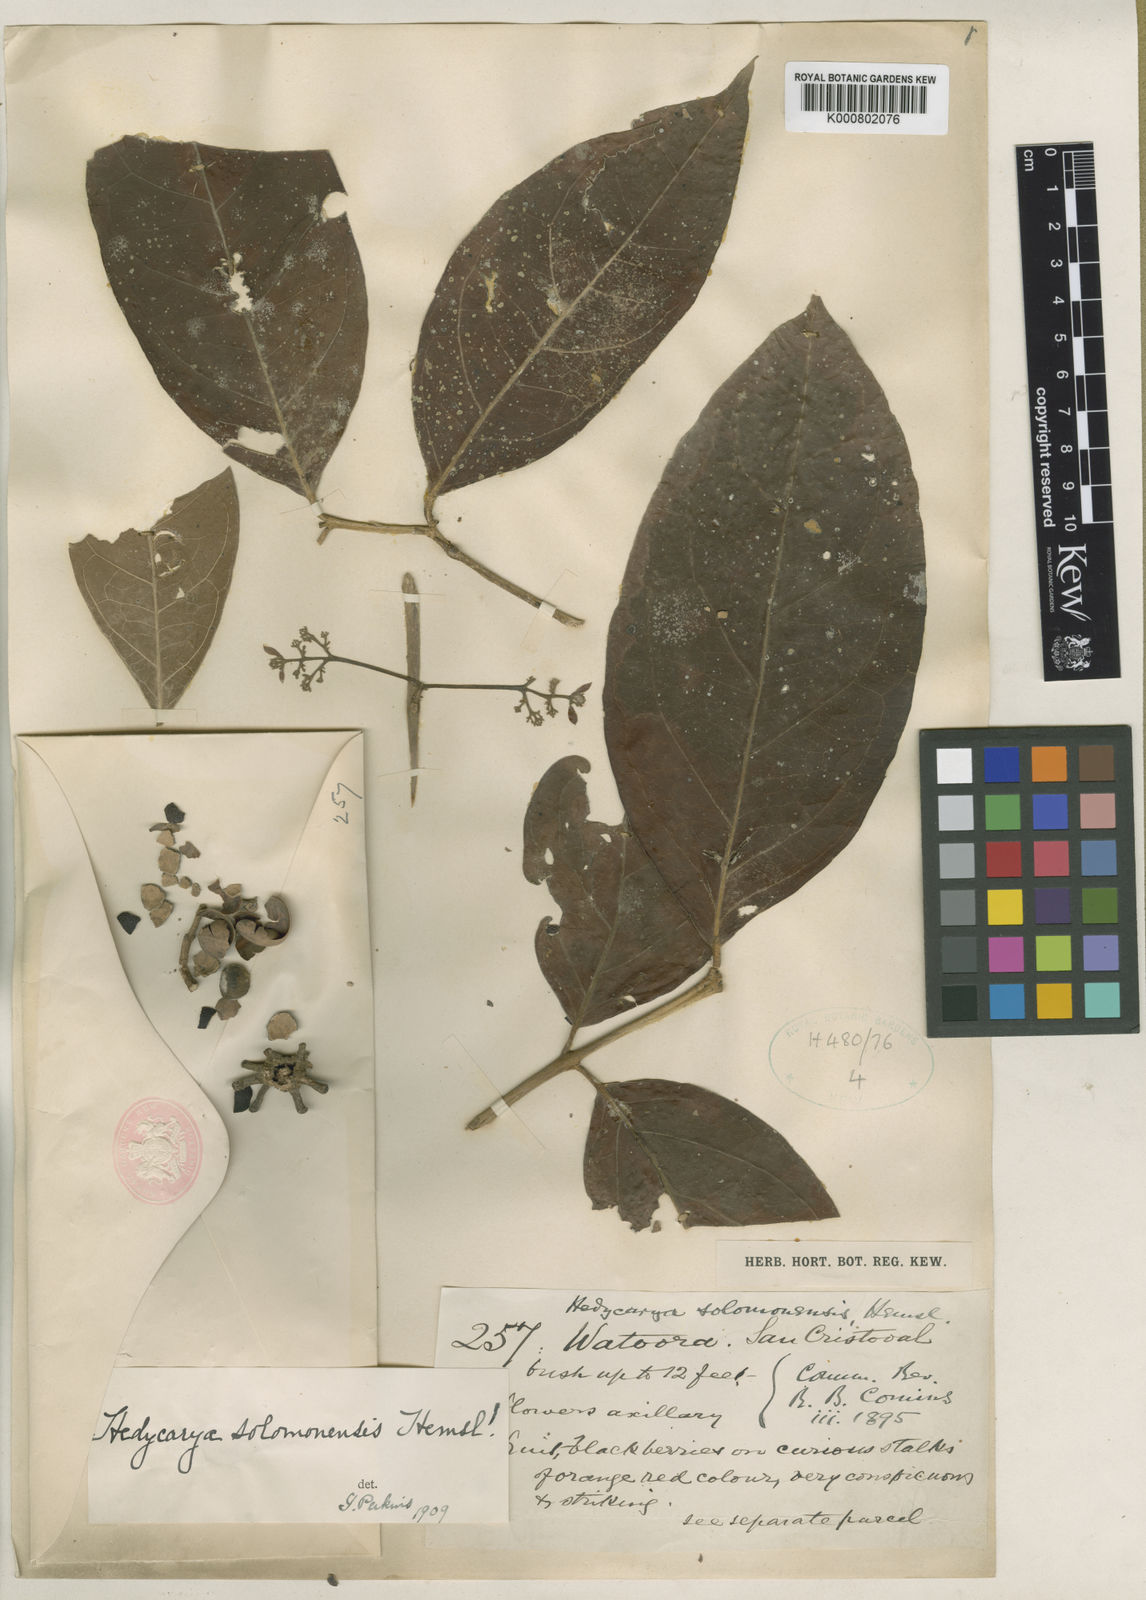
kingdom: Plantae
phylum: Tracheophyta
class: Magnoliopsida
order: Laurales
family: Monimiaceae
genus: Hedycarya
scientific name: Hedycarya
